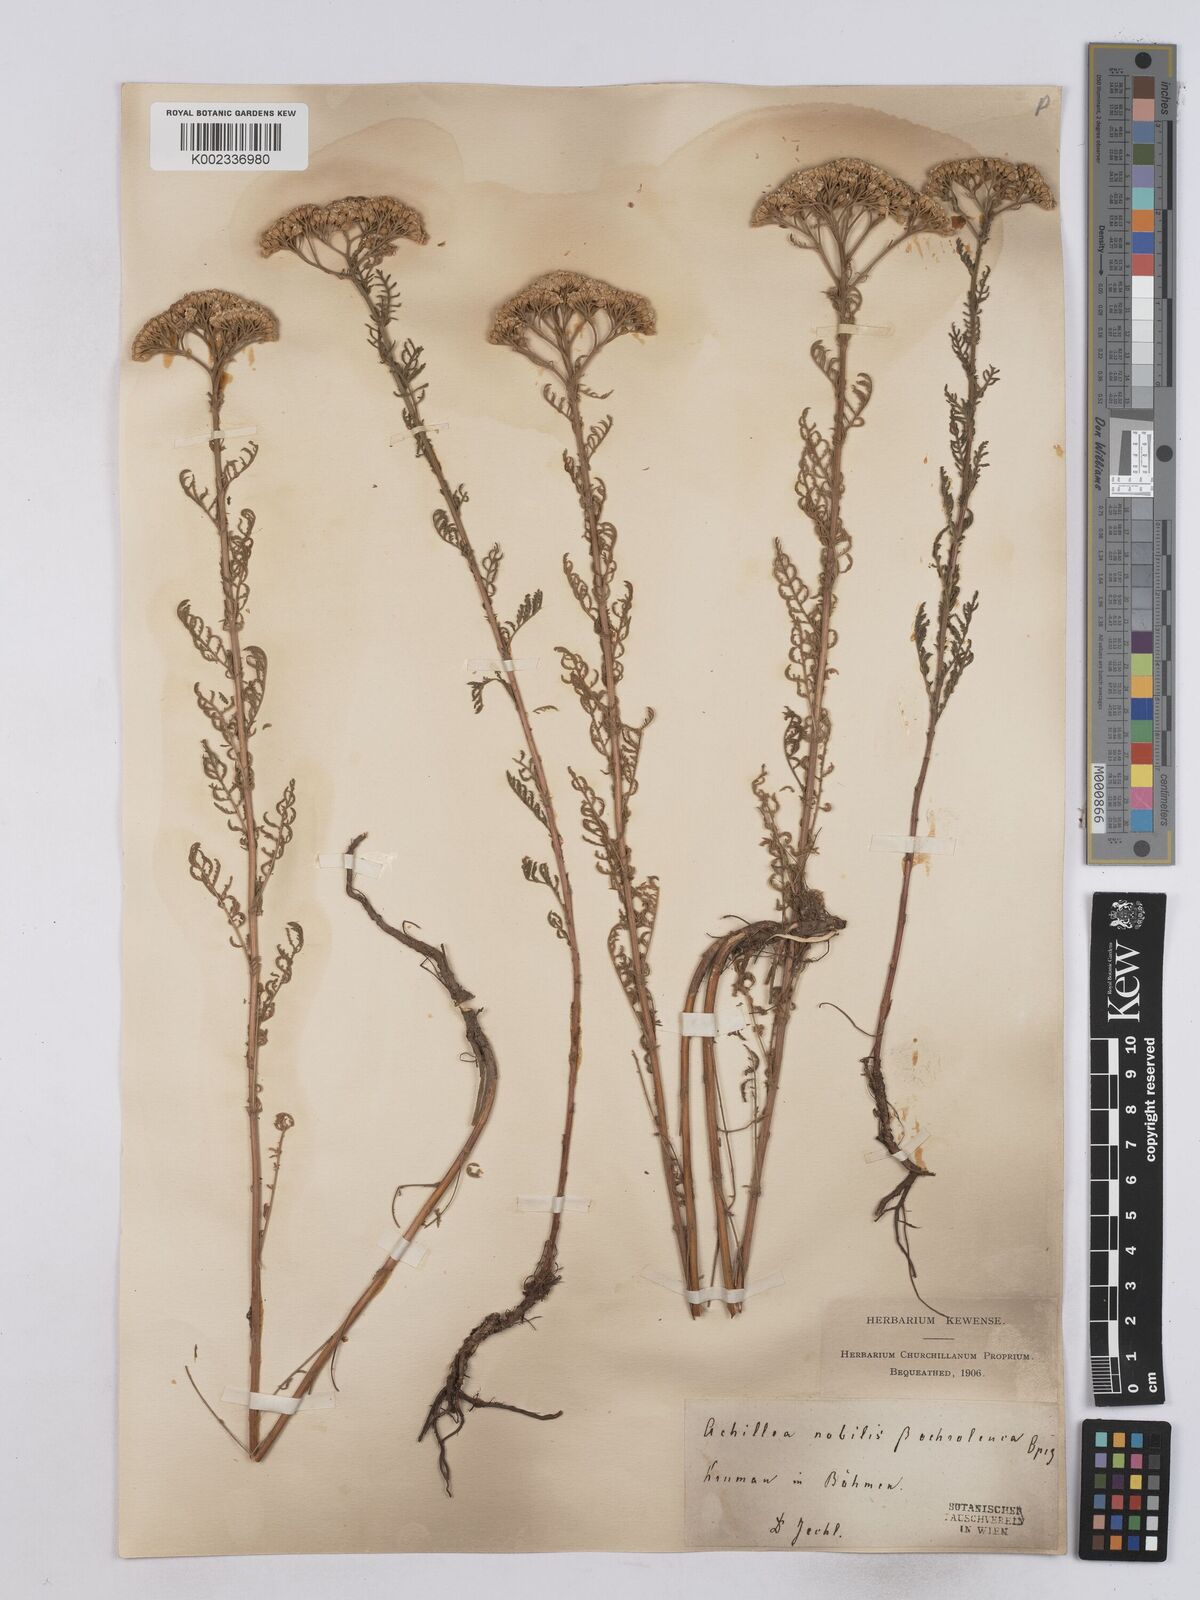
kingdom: Plantae
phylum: Tracheophyta
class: Magnoliopsida
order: Asterales
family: Asteraceae
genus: Achillea
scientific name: Achillea nobilis
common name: Noble yarrow
